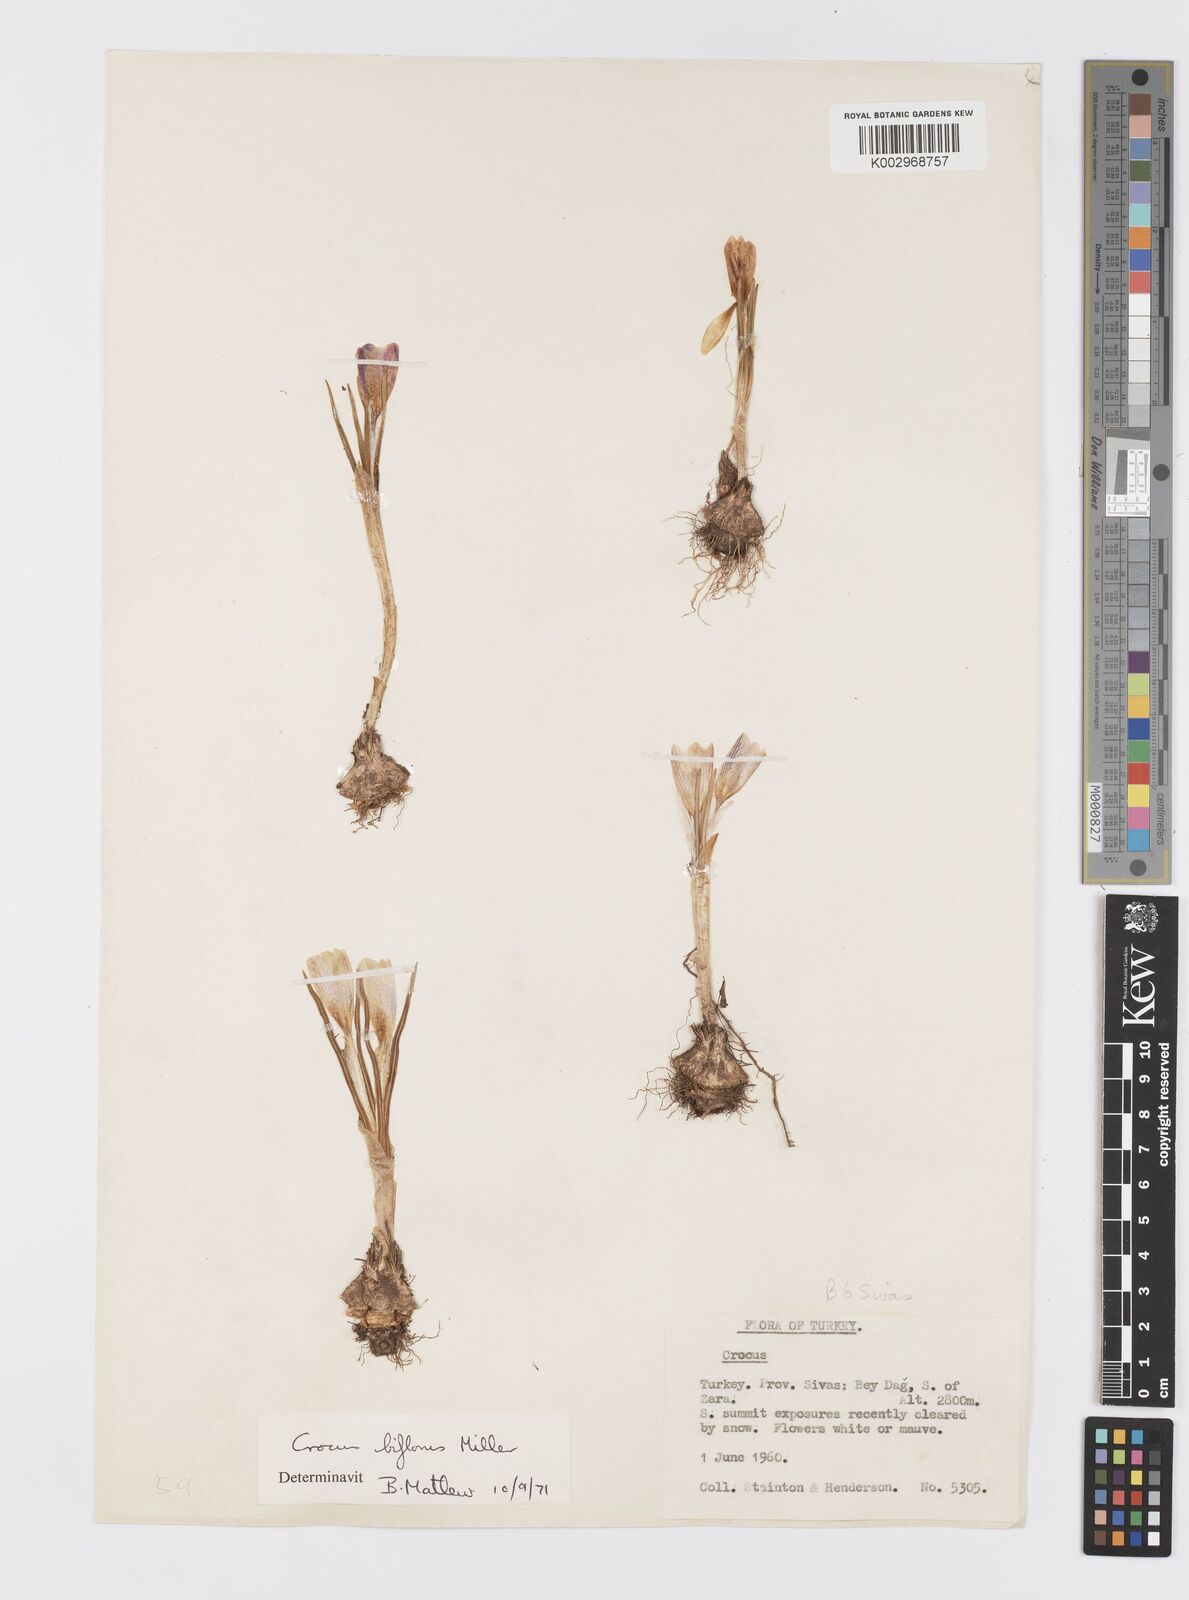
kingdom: Plantae
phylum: Tracheophyta
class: Liliopsida
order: Asparagales
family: Iridaceae
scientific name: Iridaceae
